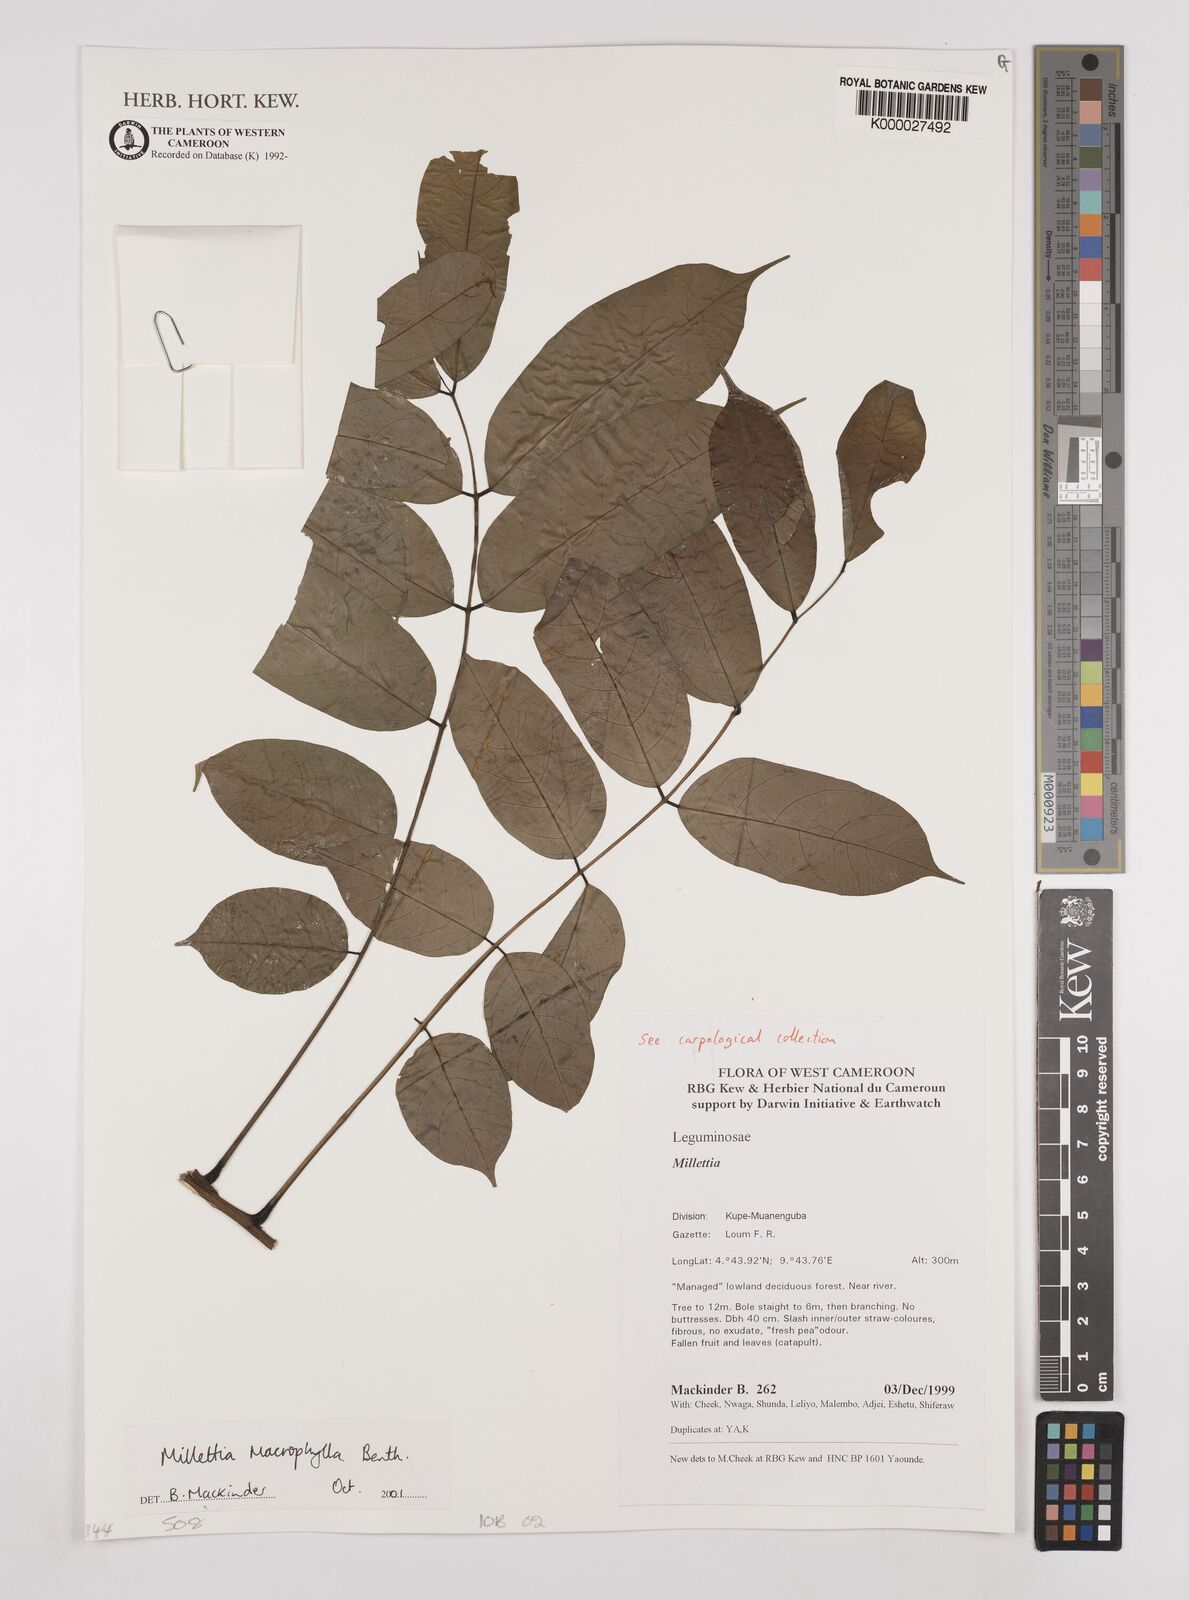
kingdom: Plantae
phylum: Tracheophyta
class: Magnoliopsida
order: Fabales
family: Fabaceae
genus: Millettia
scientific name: Millettia macrophylla
